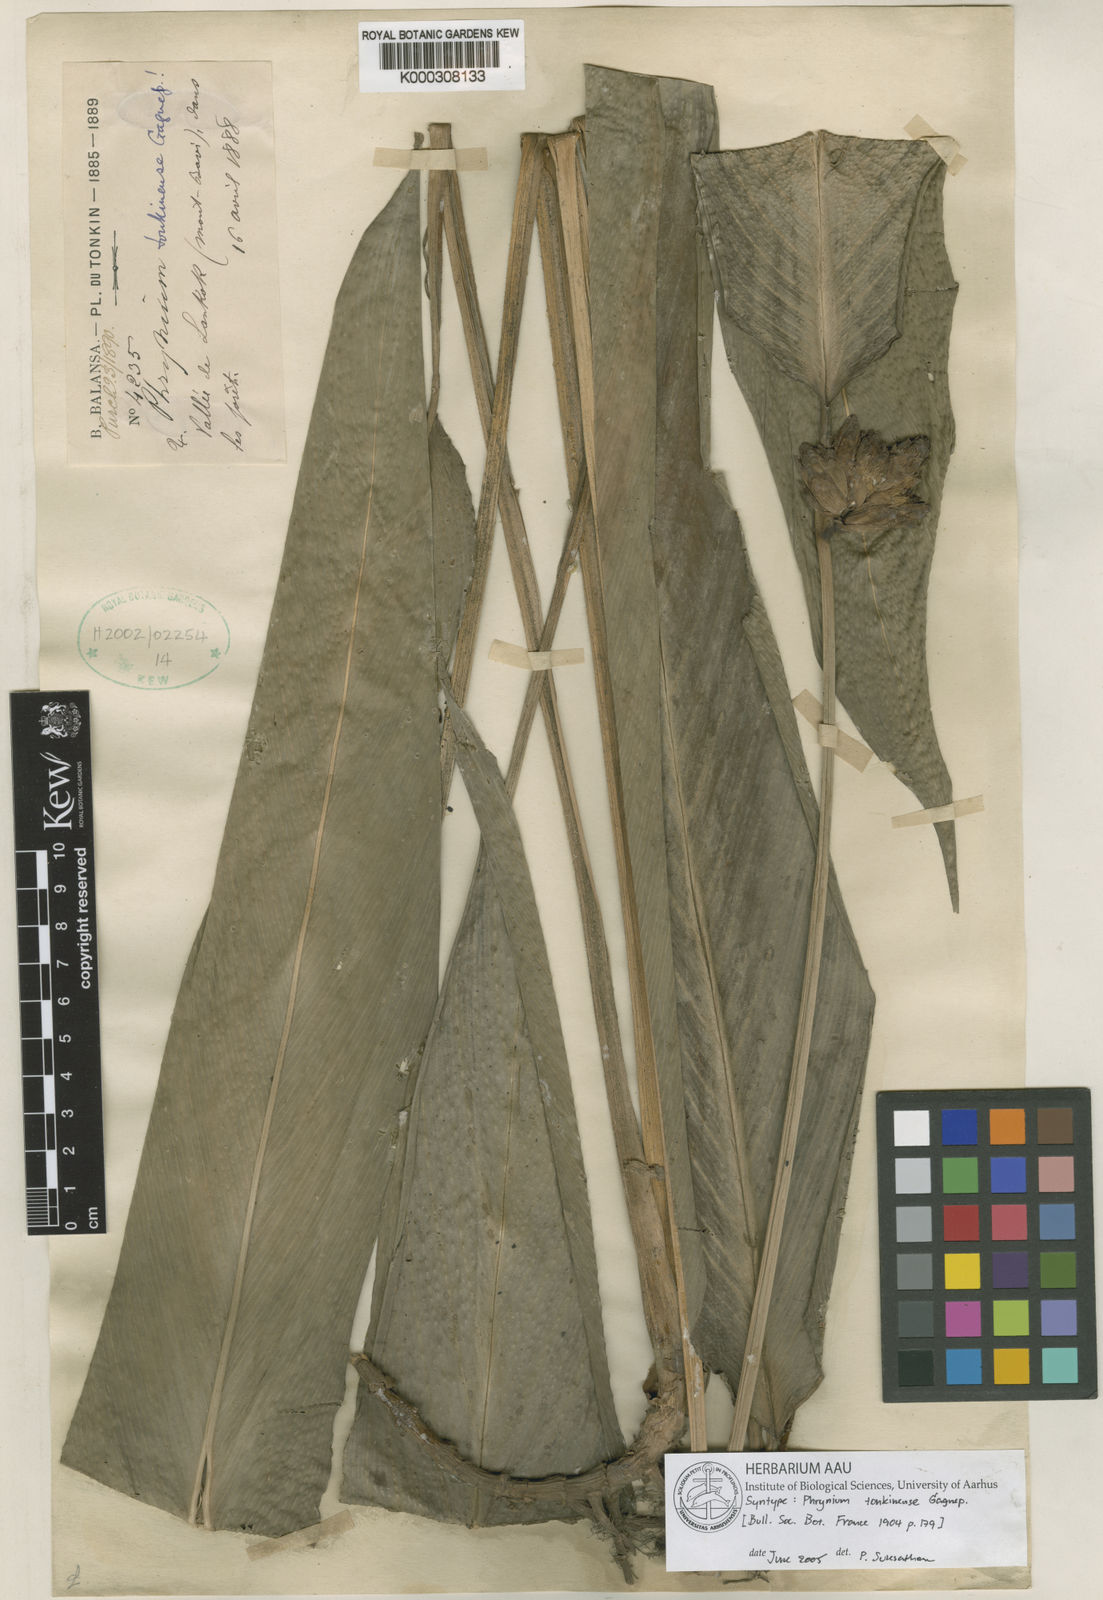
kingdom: Plantae
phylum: Tracheophyta
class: Liliopsida
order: Zingiberales
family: Marantaceae
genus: Phrynium
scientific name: Phrynium tonkinense
